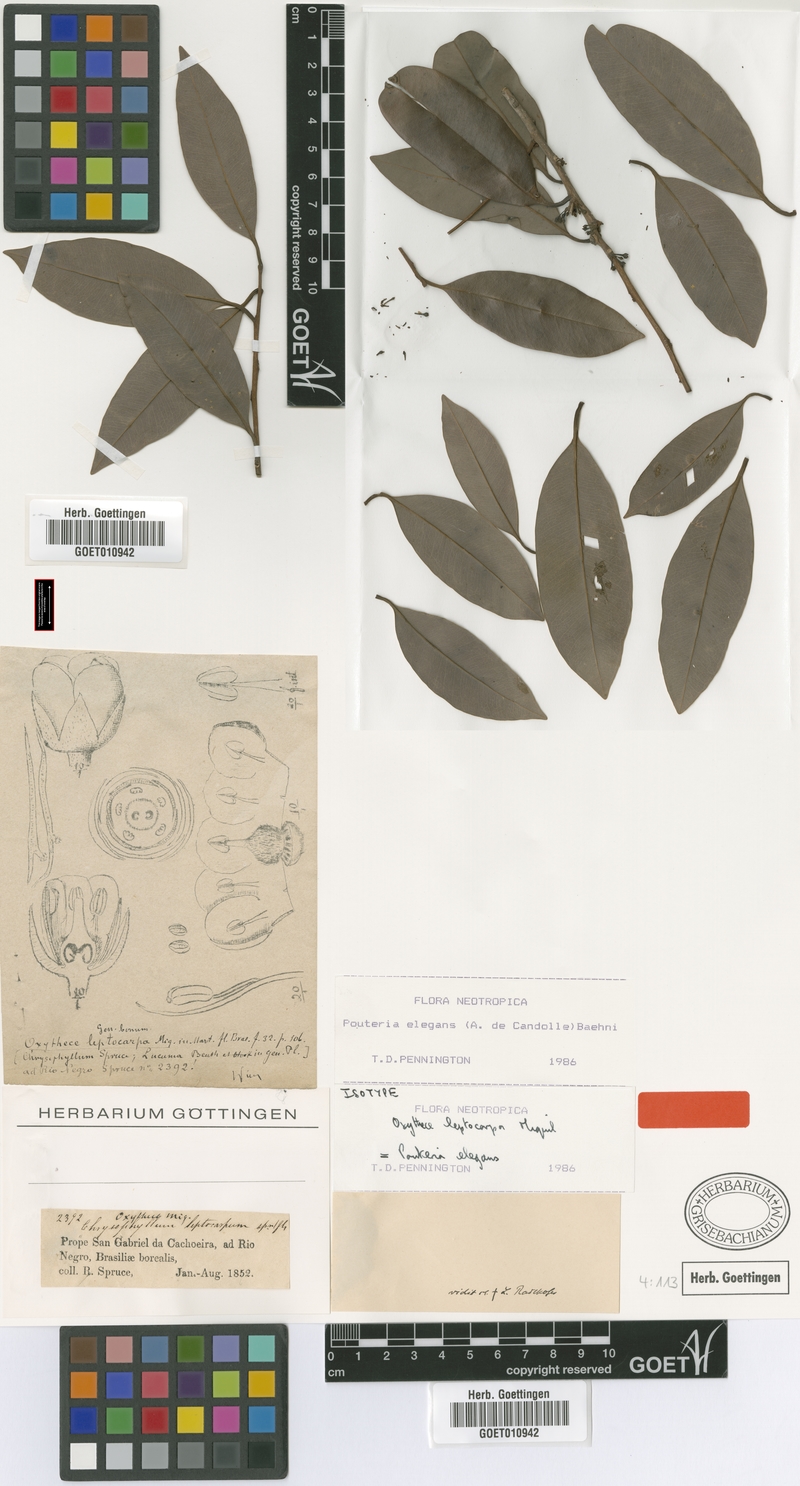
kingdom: Plantae
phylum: Tracheophyta
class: Magnoliopsida
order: Ericales
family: Sapotaceae
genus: Pouteria
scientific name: Pouteria elegans
